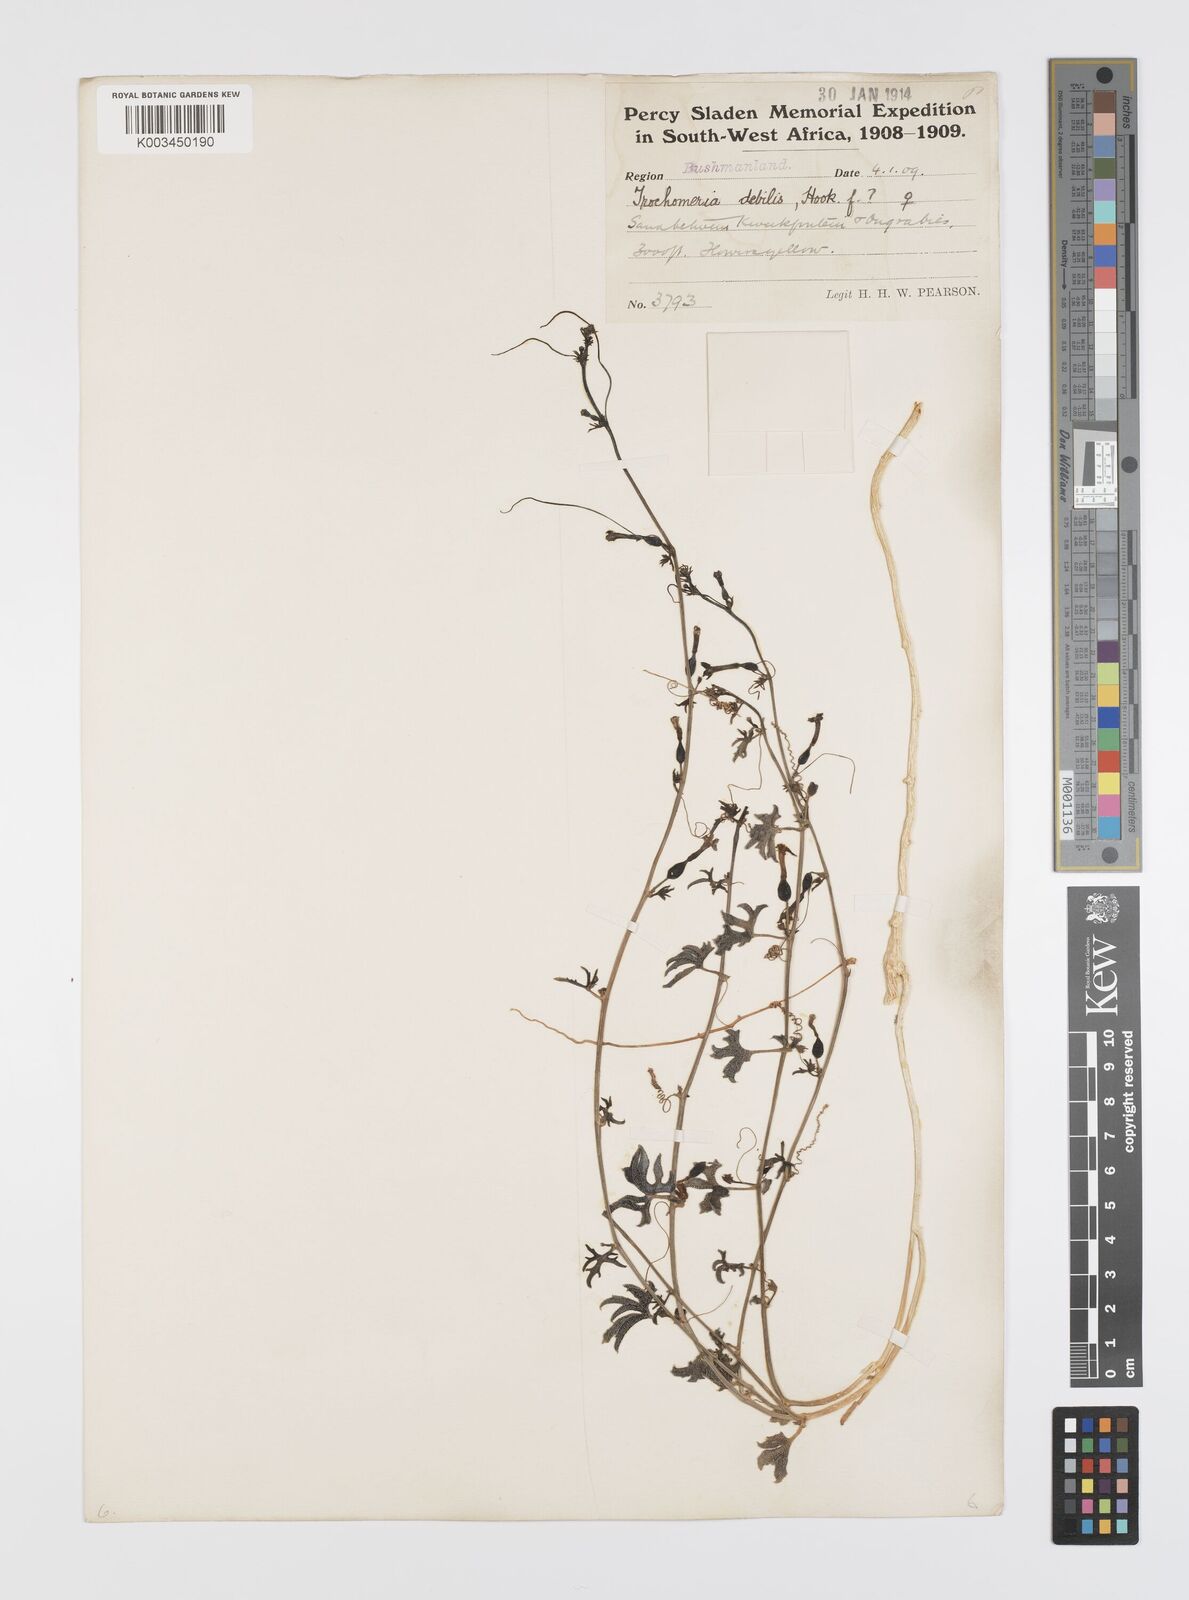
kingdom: Plantae
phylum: Tracheophyta
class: Magnoliopsida
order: Cucurbitales
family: Cucurbitaceae
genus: Trochomeria
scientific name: Trochomeria debilis
